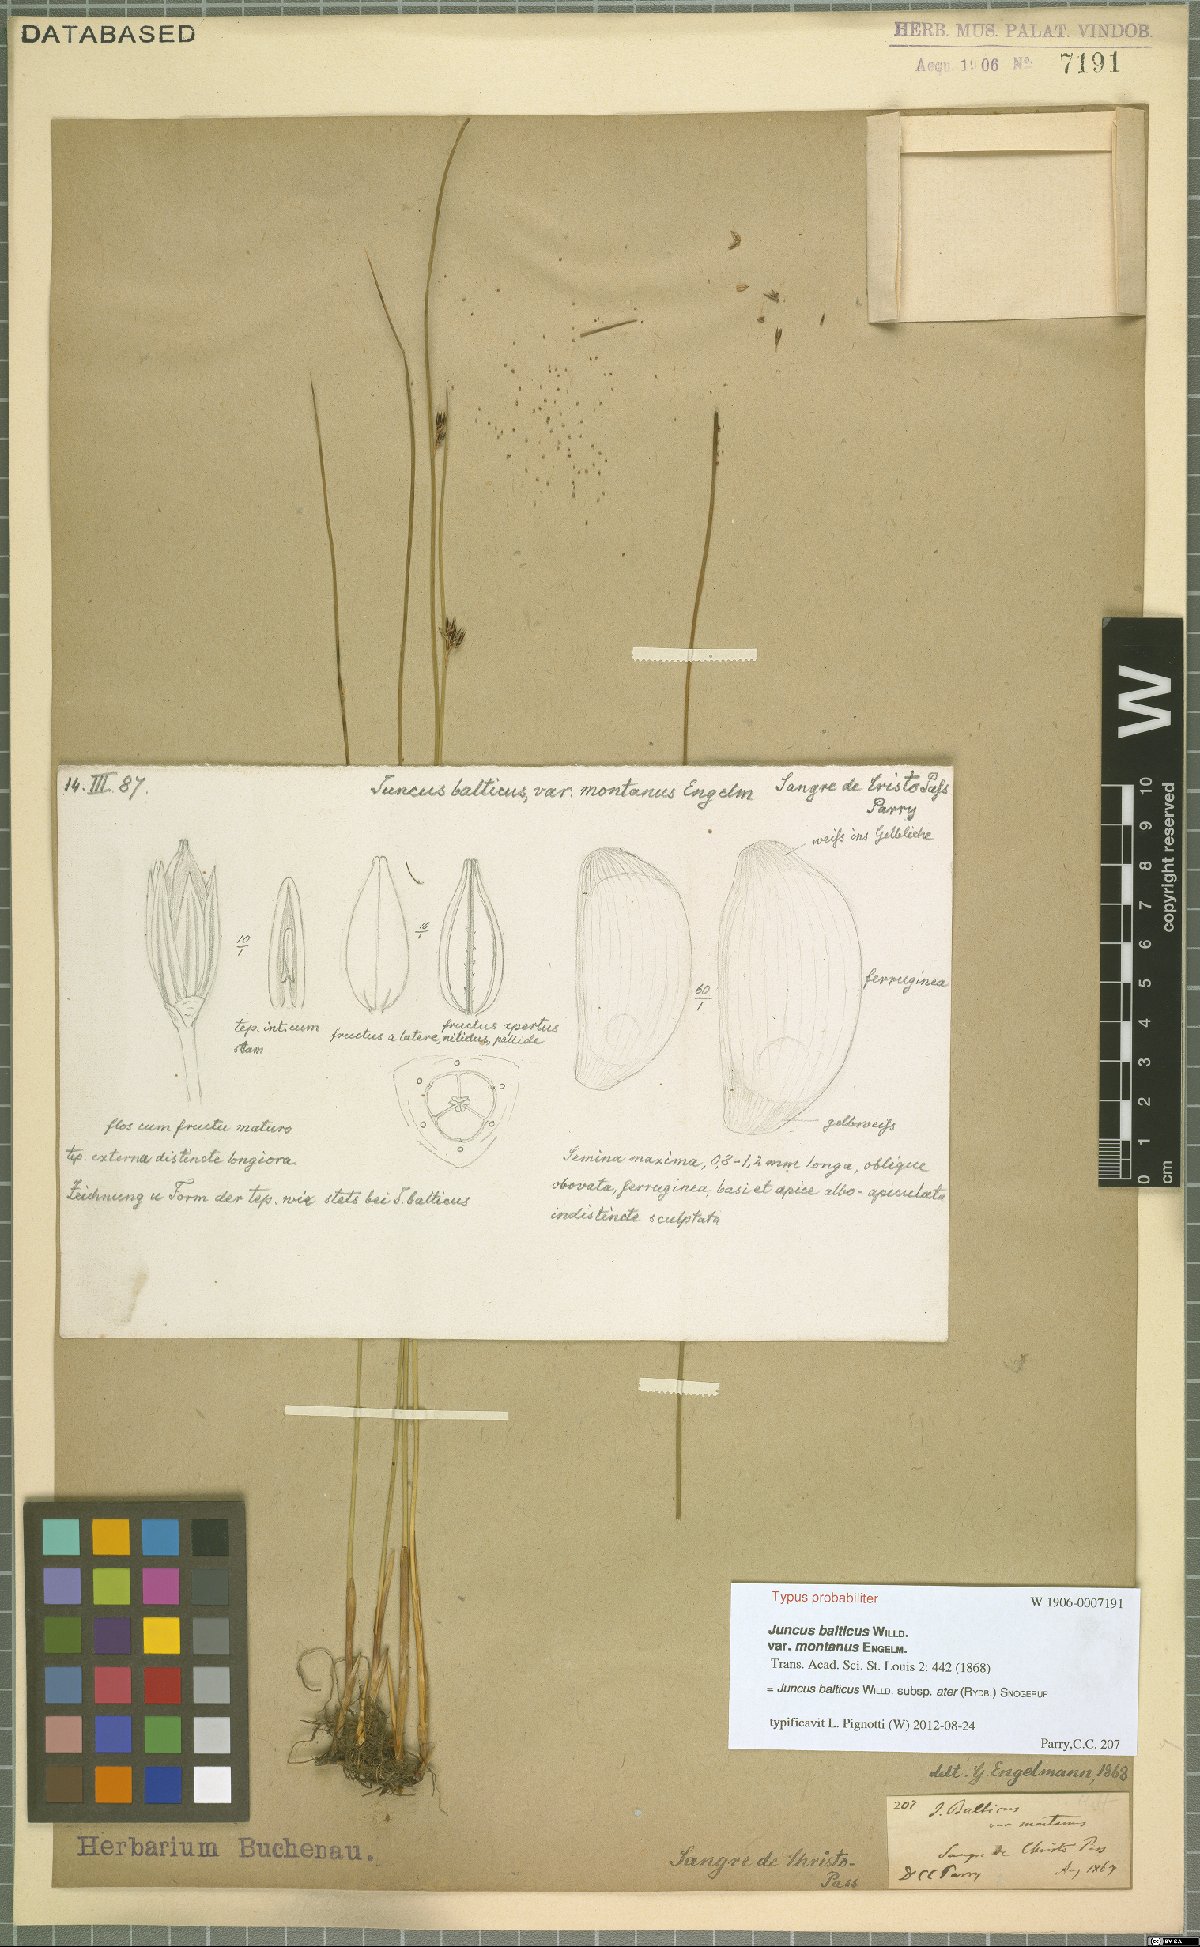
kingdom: Plantae
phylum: Tracheophyta
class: Liliopsida
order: Poales
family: Juncaceae
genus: Juncus
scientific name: Juncus balticus
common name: Baltic rush
